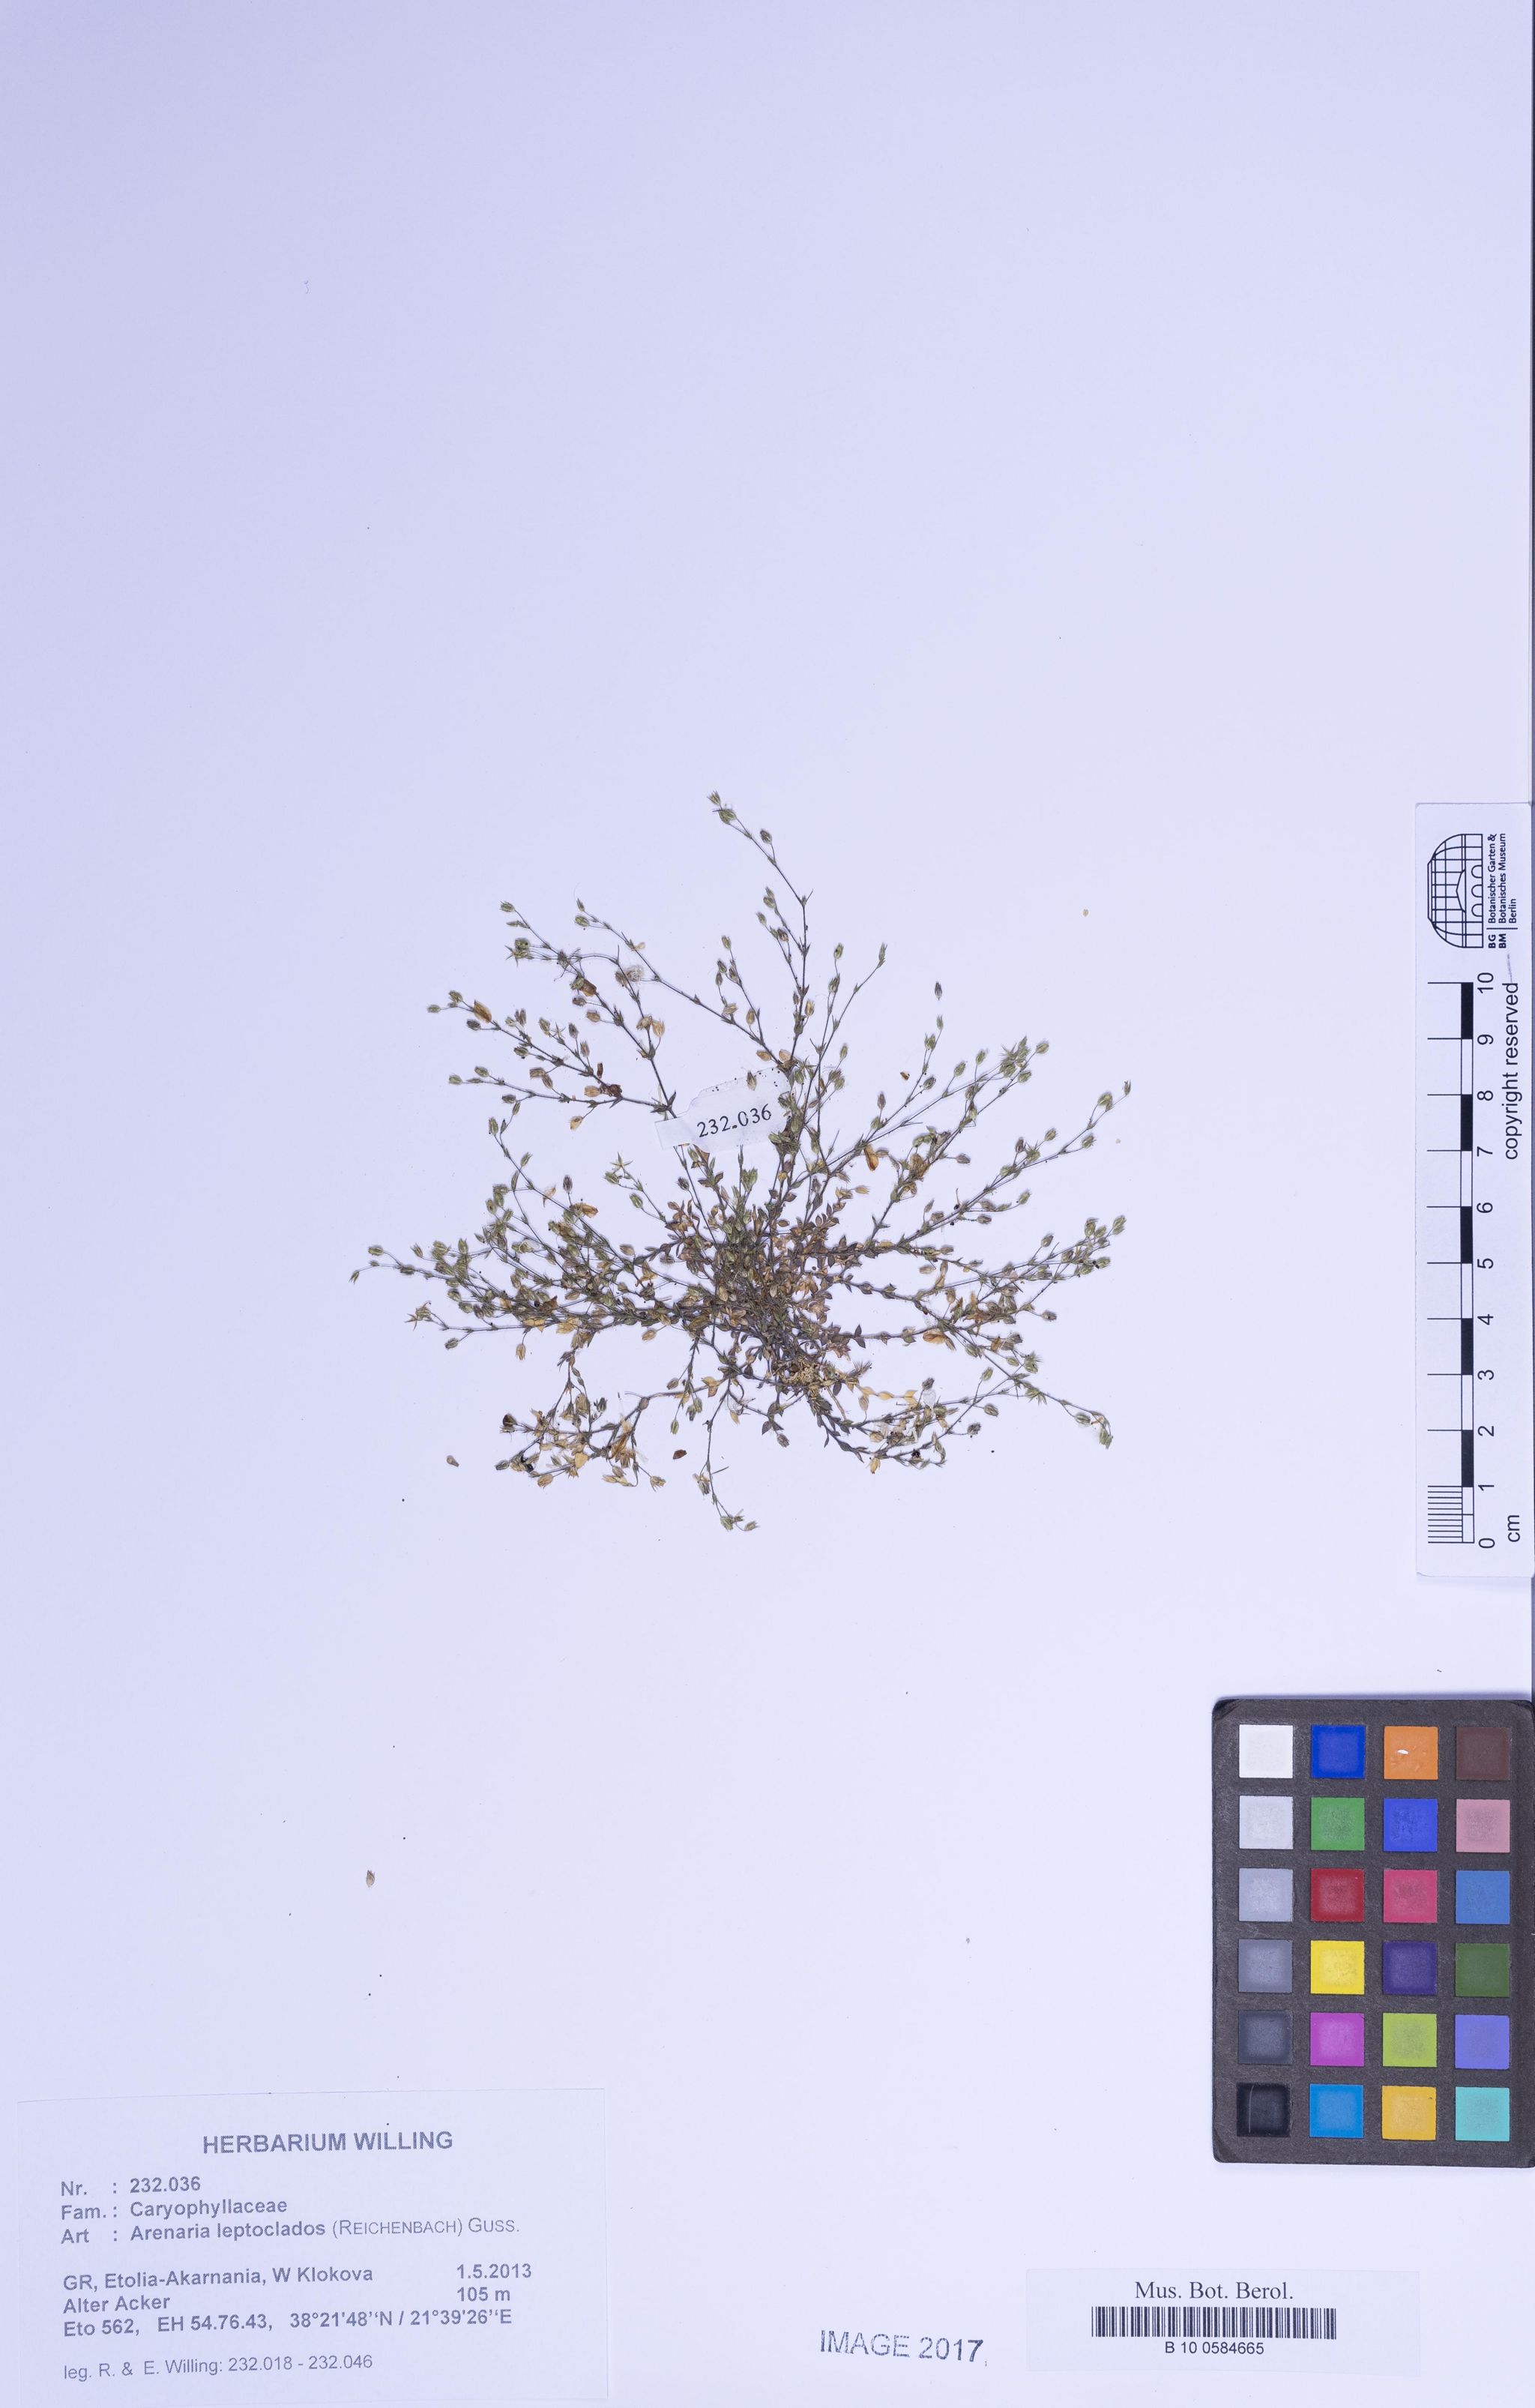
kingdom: Plantae
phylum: Tracheophyta
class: Magnoliopsida
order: Caryophyllales
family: Caryophyllaceae
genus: Arenaria
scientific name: Arenaria leptoclados
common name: Thyme-leaved sandwort
